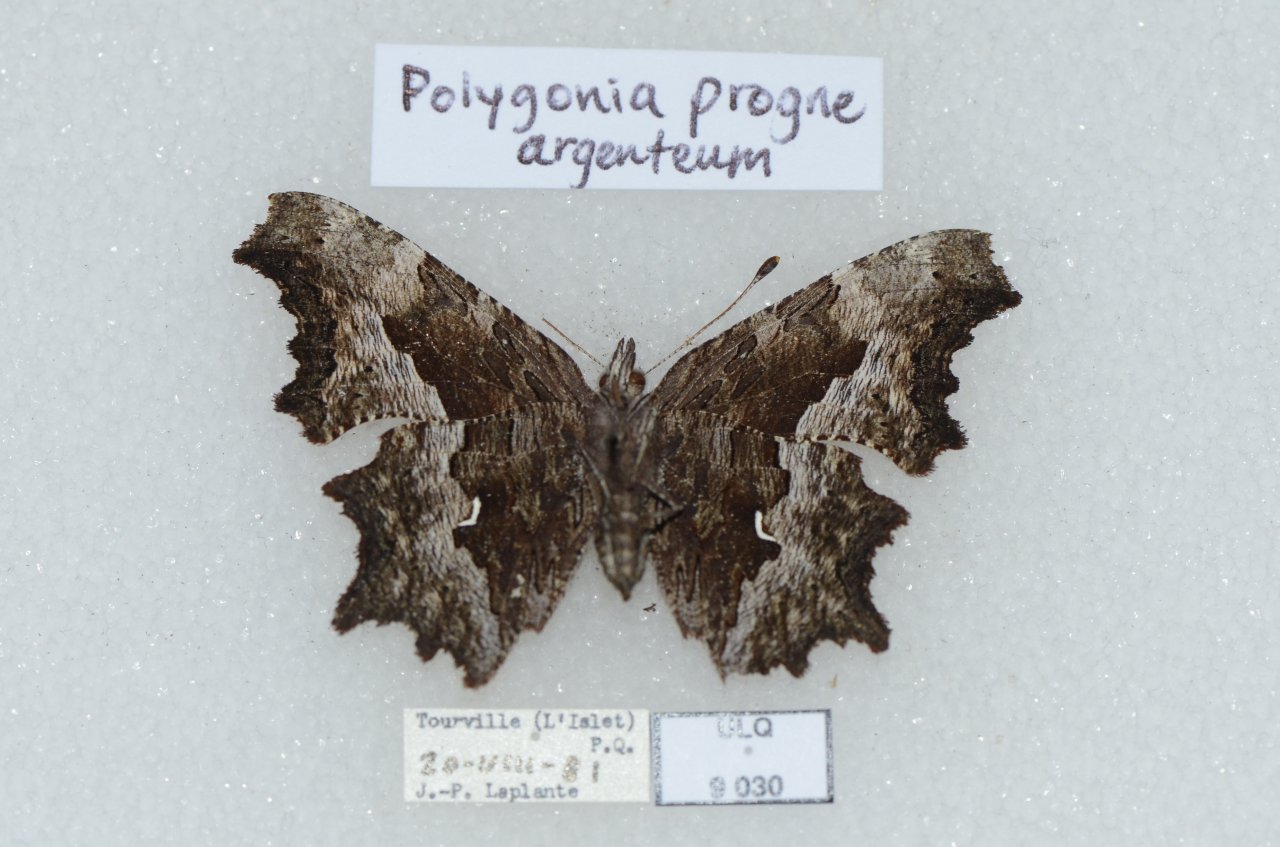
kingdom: Animalia
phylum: Arthropoda
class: Insecta
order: Lepidoptera
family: Nymphalidae
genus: Polygonia
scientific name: Polygonia gracilis
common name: Hoary Comma
